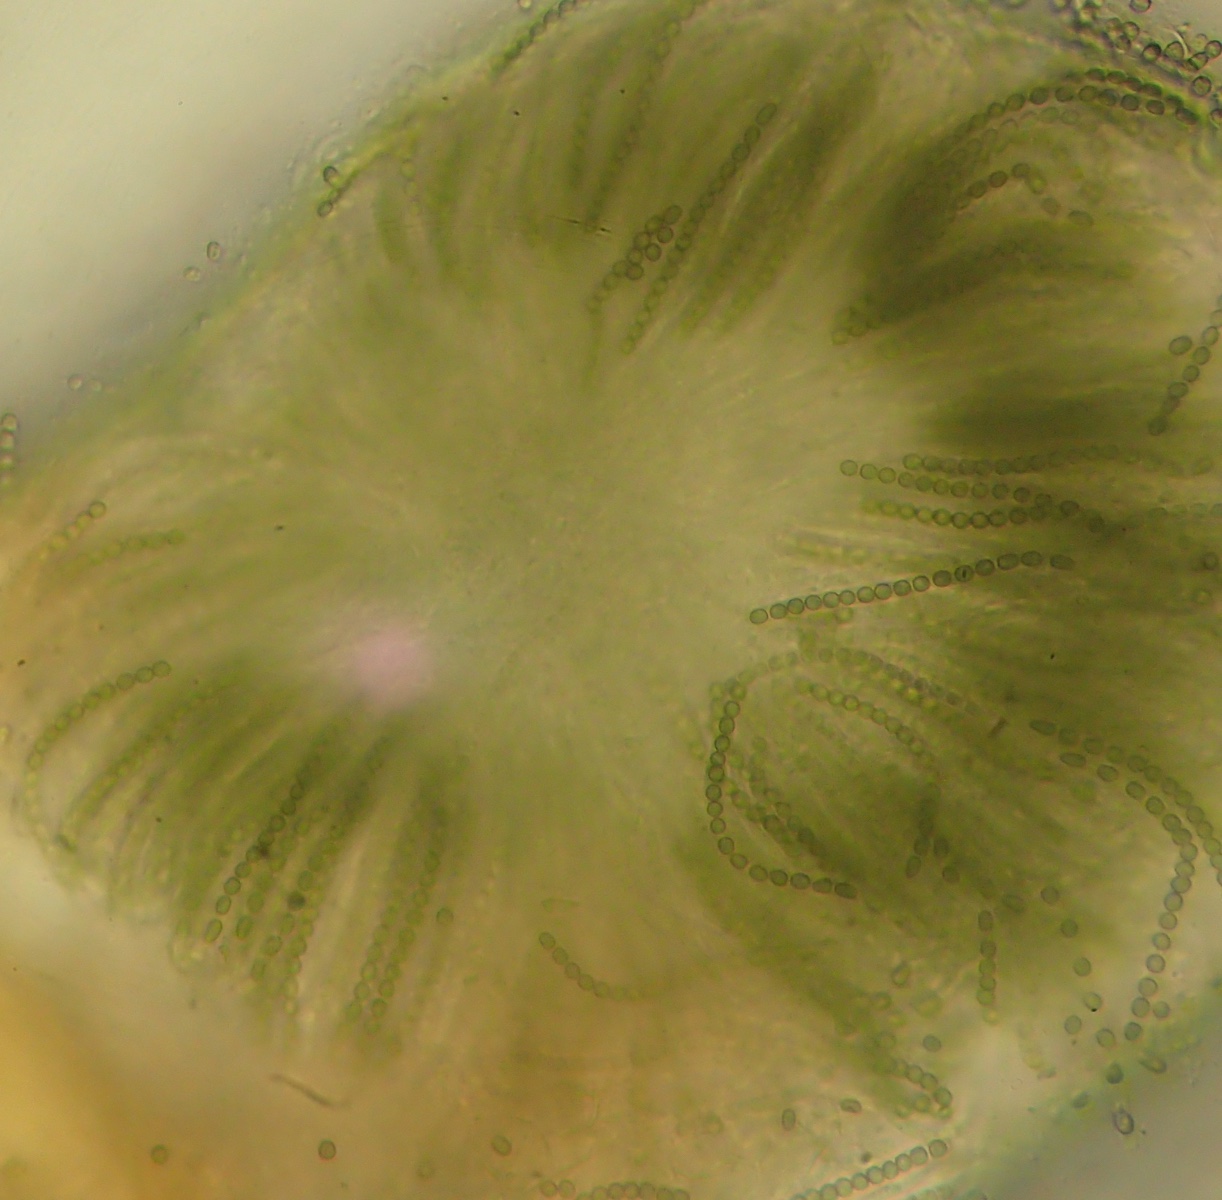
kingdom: Fungi
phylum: Ascomycota
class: Sordariomycetes
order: Hypocreales
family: Hypocreaceae
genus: Trichoderma
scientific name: Trichoderma aureoviride
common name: æggegul kødkerne
